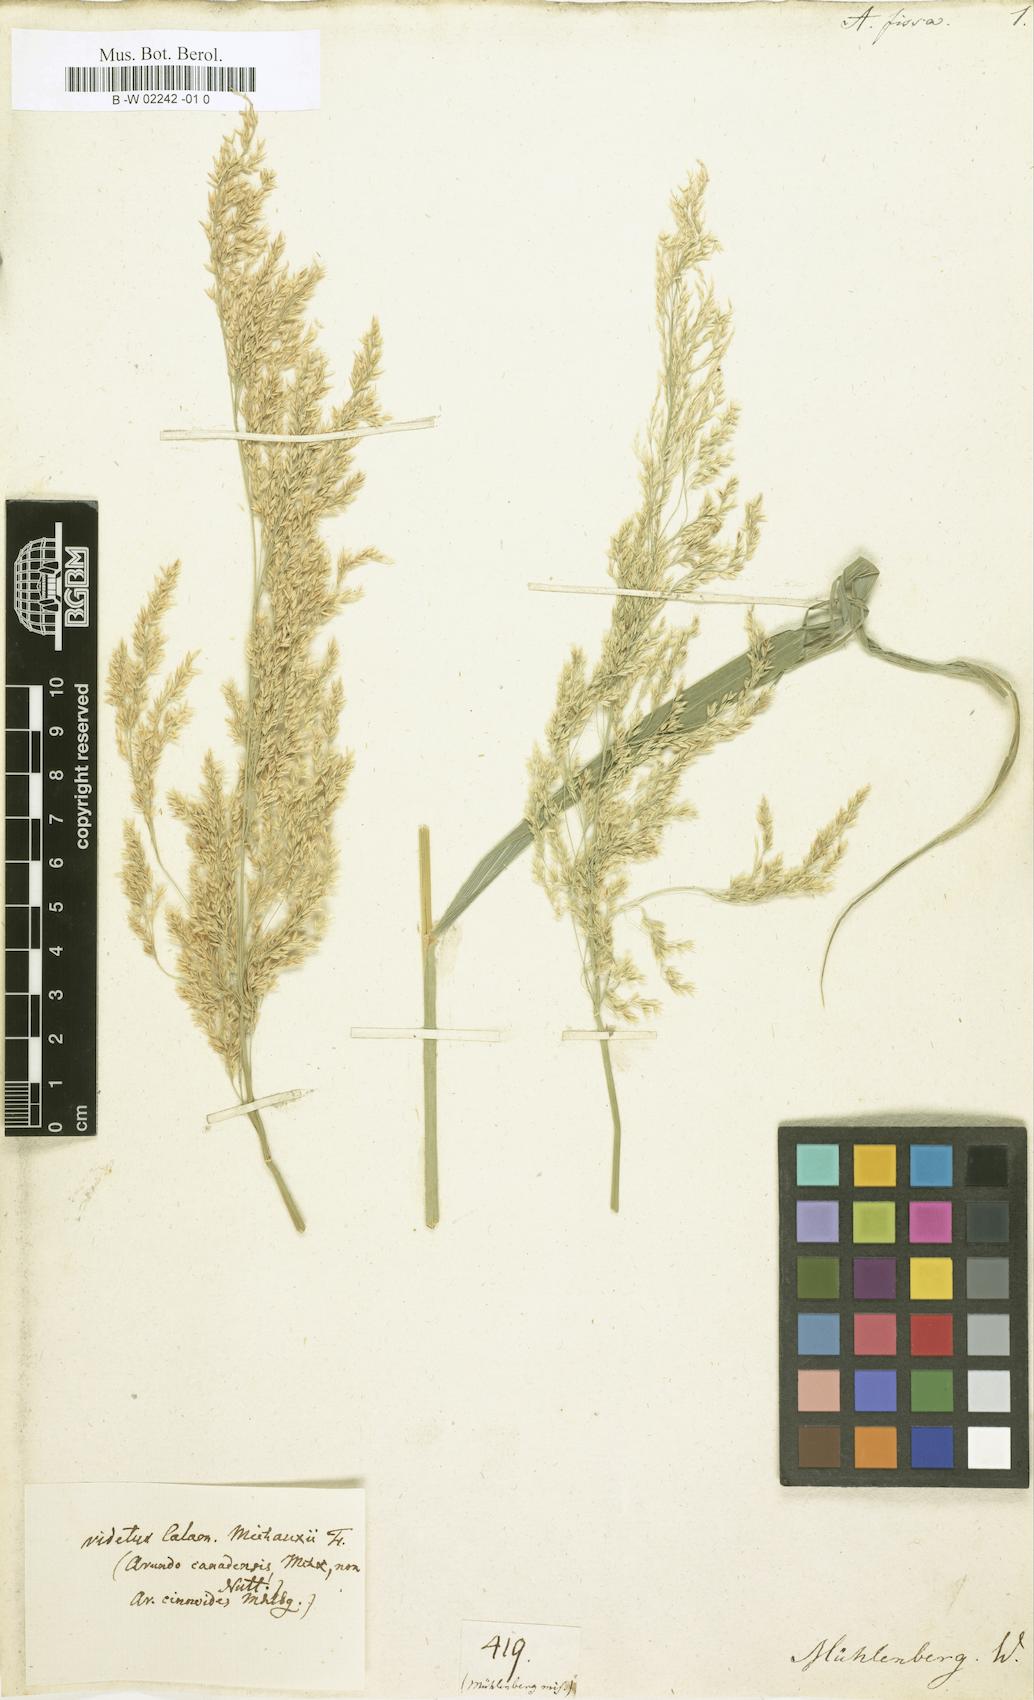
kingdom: Plantae
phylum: Tracheophyta
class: Liliopsida
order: Poales
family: Poaceae
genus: Calamagrostis
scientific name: Calamagrostis canadensis
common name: Canada bluejoint
